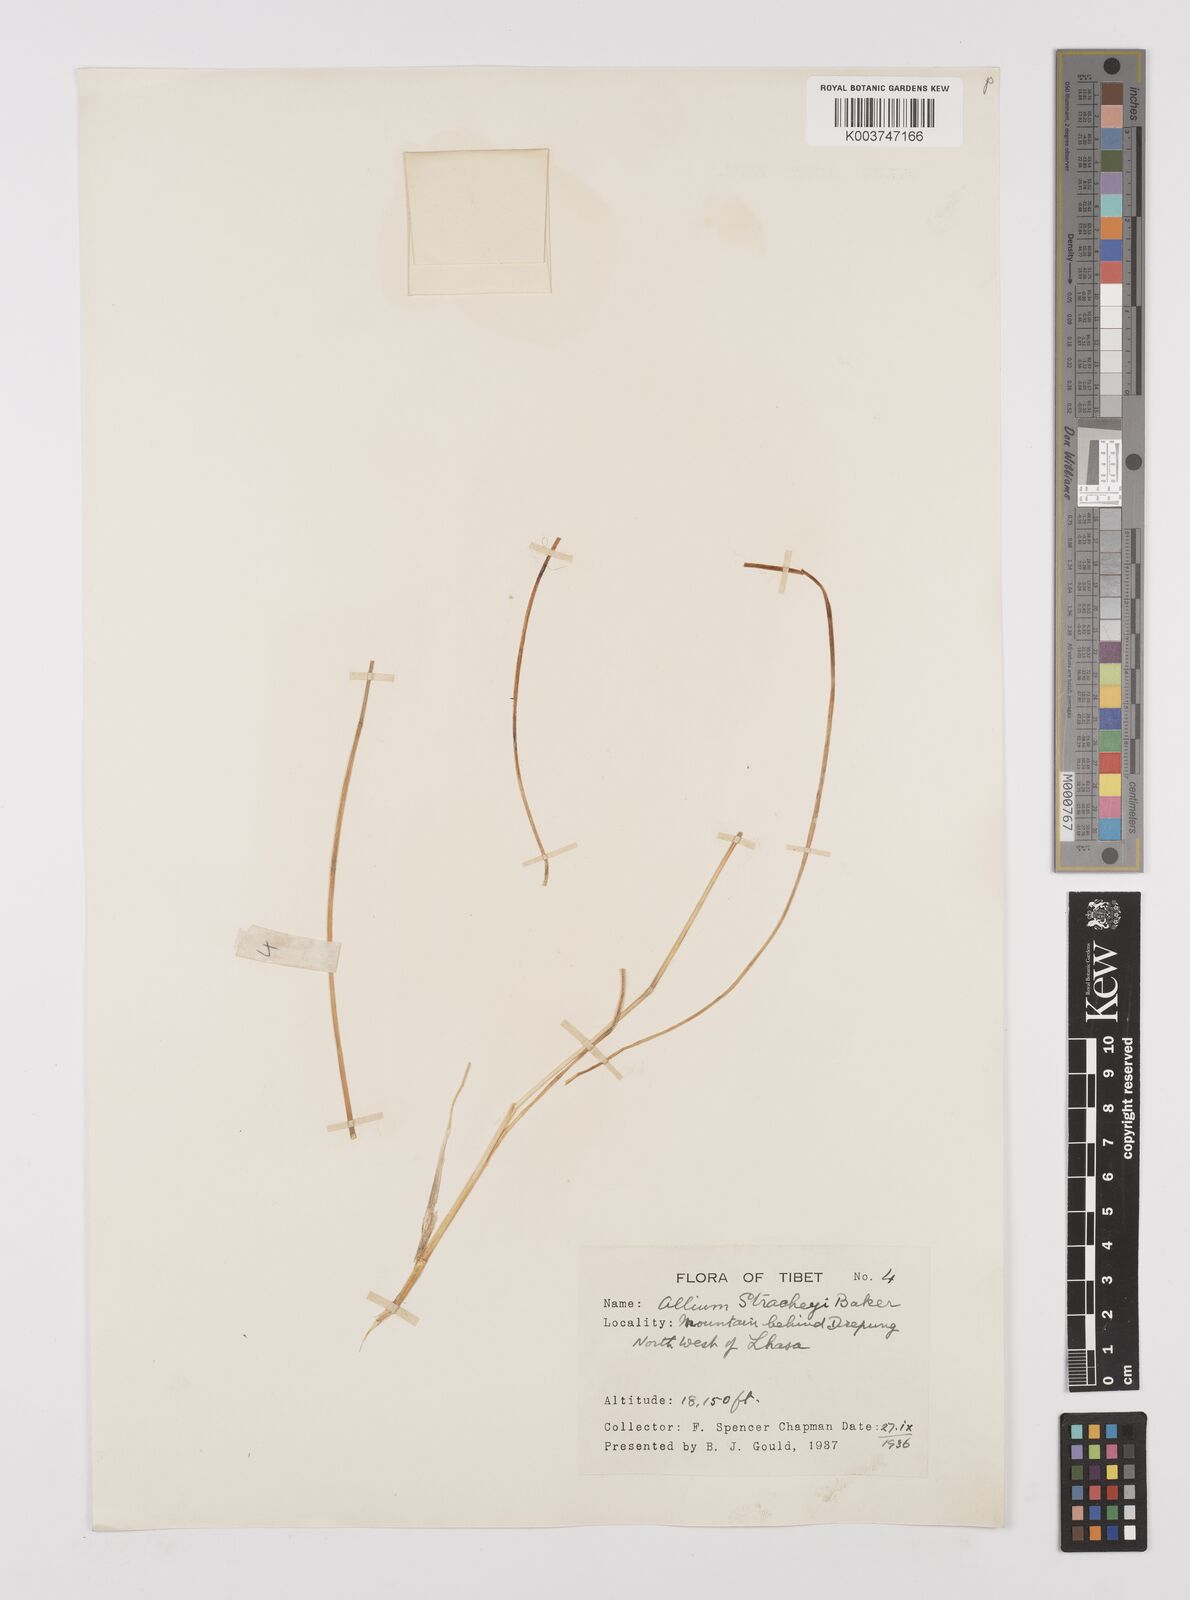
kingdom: Plantae
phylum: Tracheophyta
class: Liliopsida
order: Asparagales
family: Amaryllidaceae
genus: Allium
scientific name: Allium stracheyi
